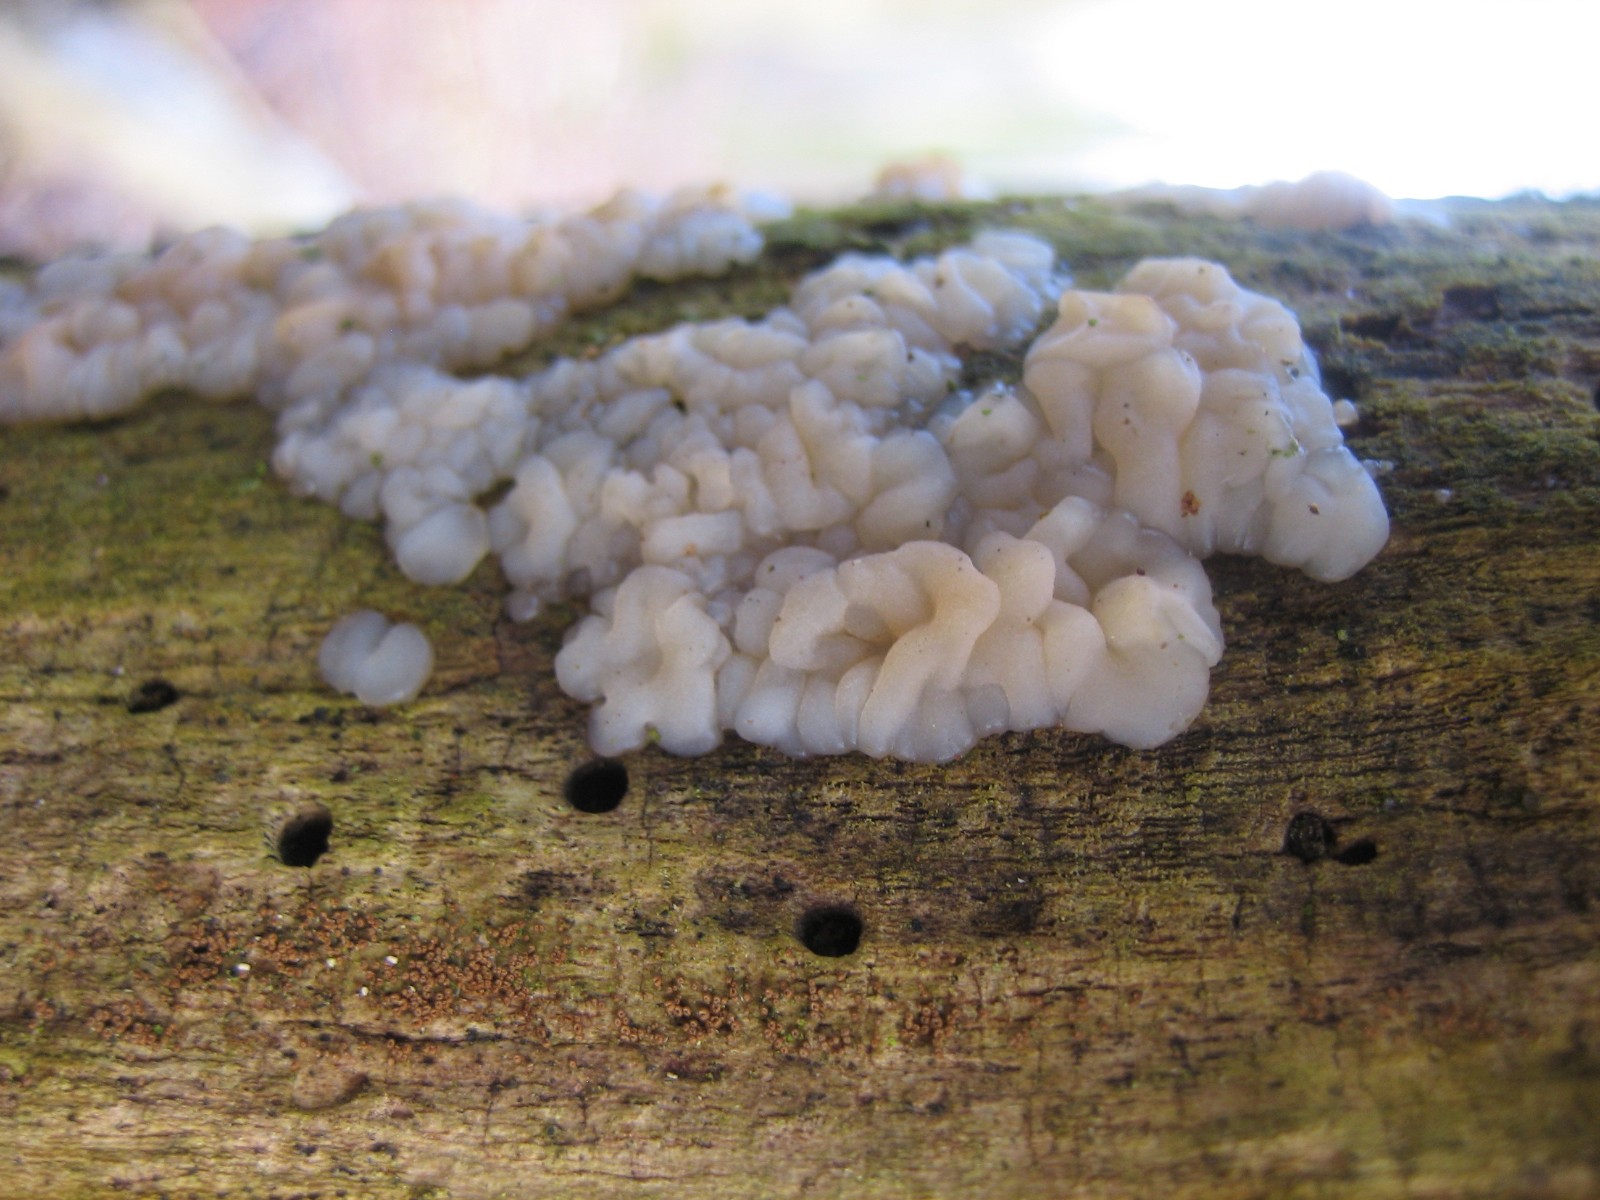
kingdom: Fungi
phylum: Basidiomycota
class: Agaricomycetes
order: Auriculariales
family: Auriculariaceae
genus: Exidia
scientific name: Exidia thuretiana
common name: hvidlig bævretop
